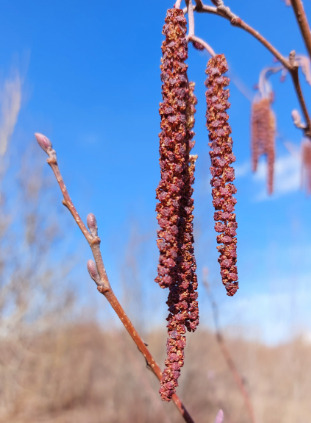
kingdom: Plantae
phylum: Tracheophyta
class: Magnoliopsida
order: Fagales
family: Betulaceae
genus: Alnus
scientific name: Alnus glutinosa
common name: Rød-el
